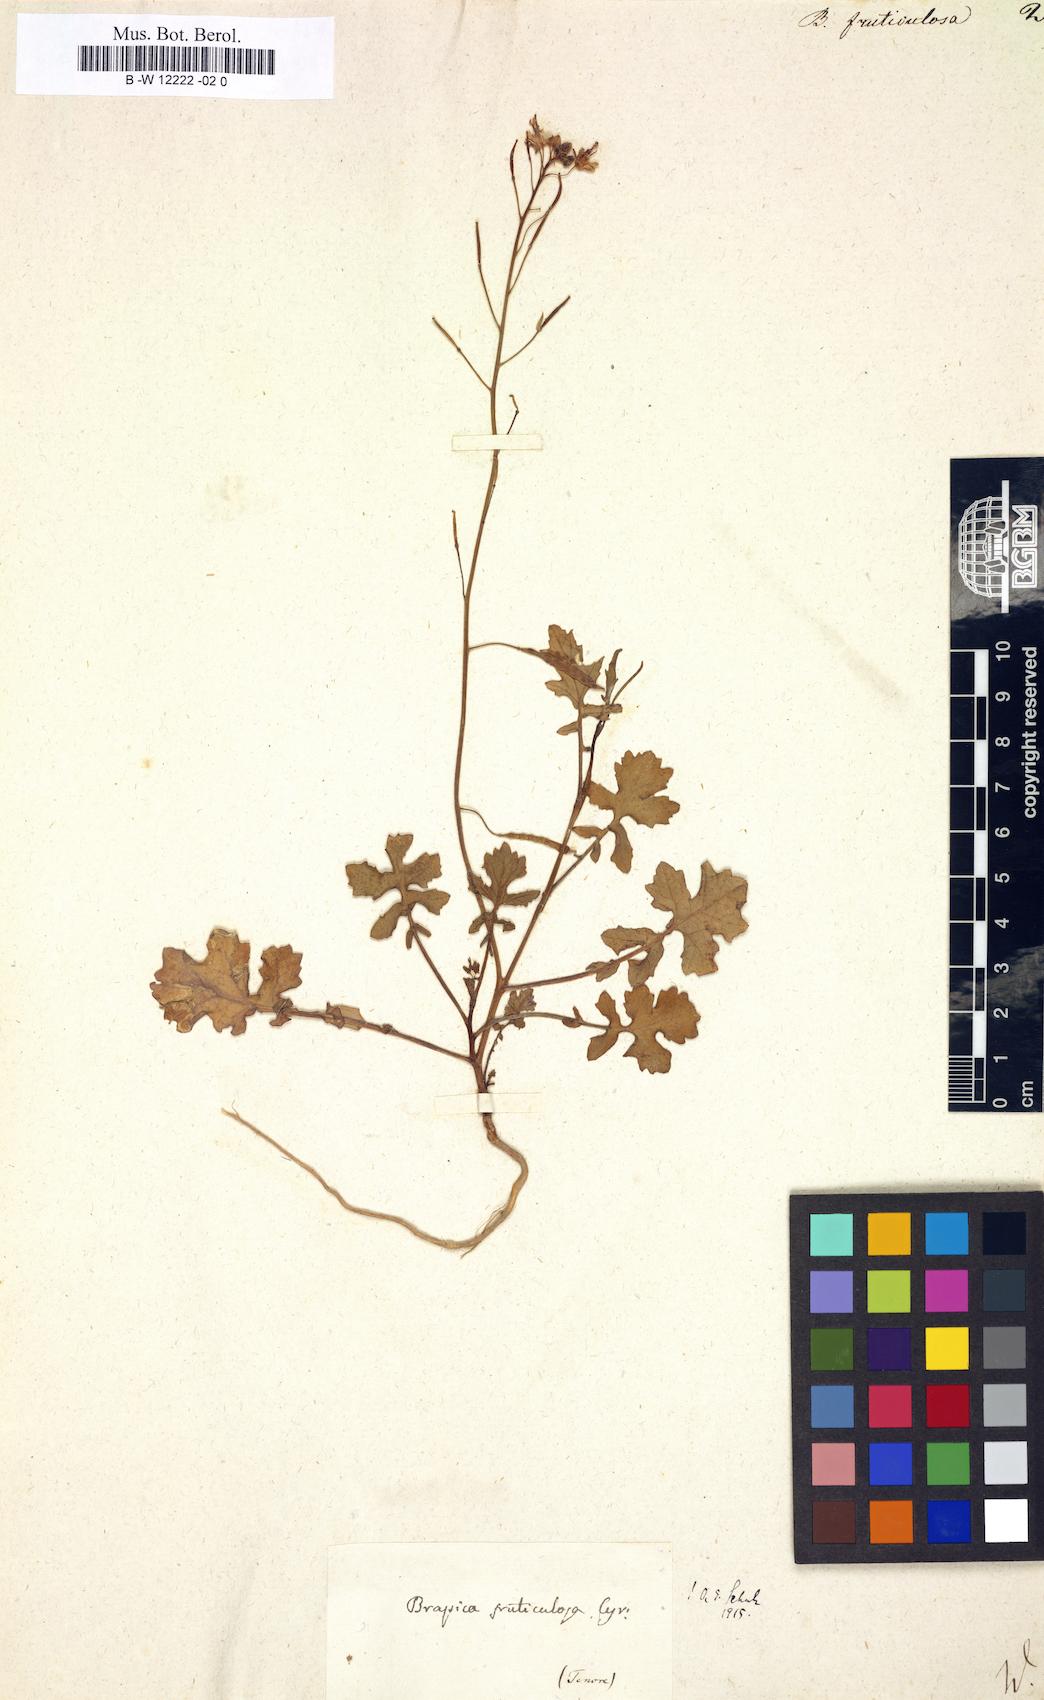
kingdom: Plantae
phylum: Tracheophyta
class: Magnoliopsida
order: Brassicales
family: Brassicaceae
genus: Brassica
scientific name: Brassica fruticulosa
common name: Twiggy turnip
